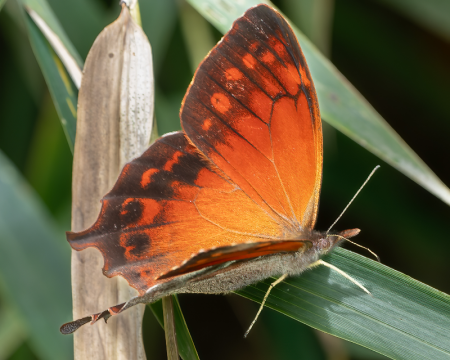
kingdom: Animalia
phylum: Arthropoda
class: Insecta
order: Lepidoptera
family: Nymphalidae
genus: Lasiophila
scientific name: Lasiophila circe
